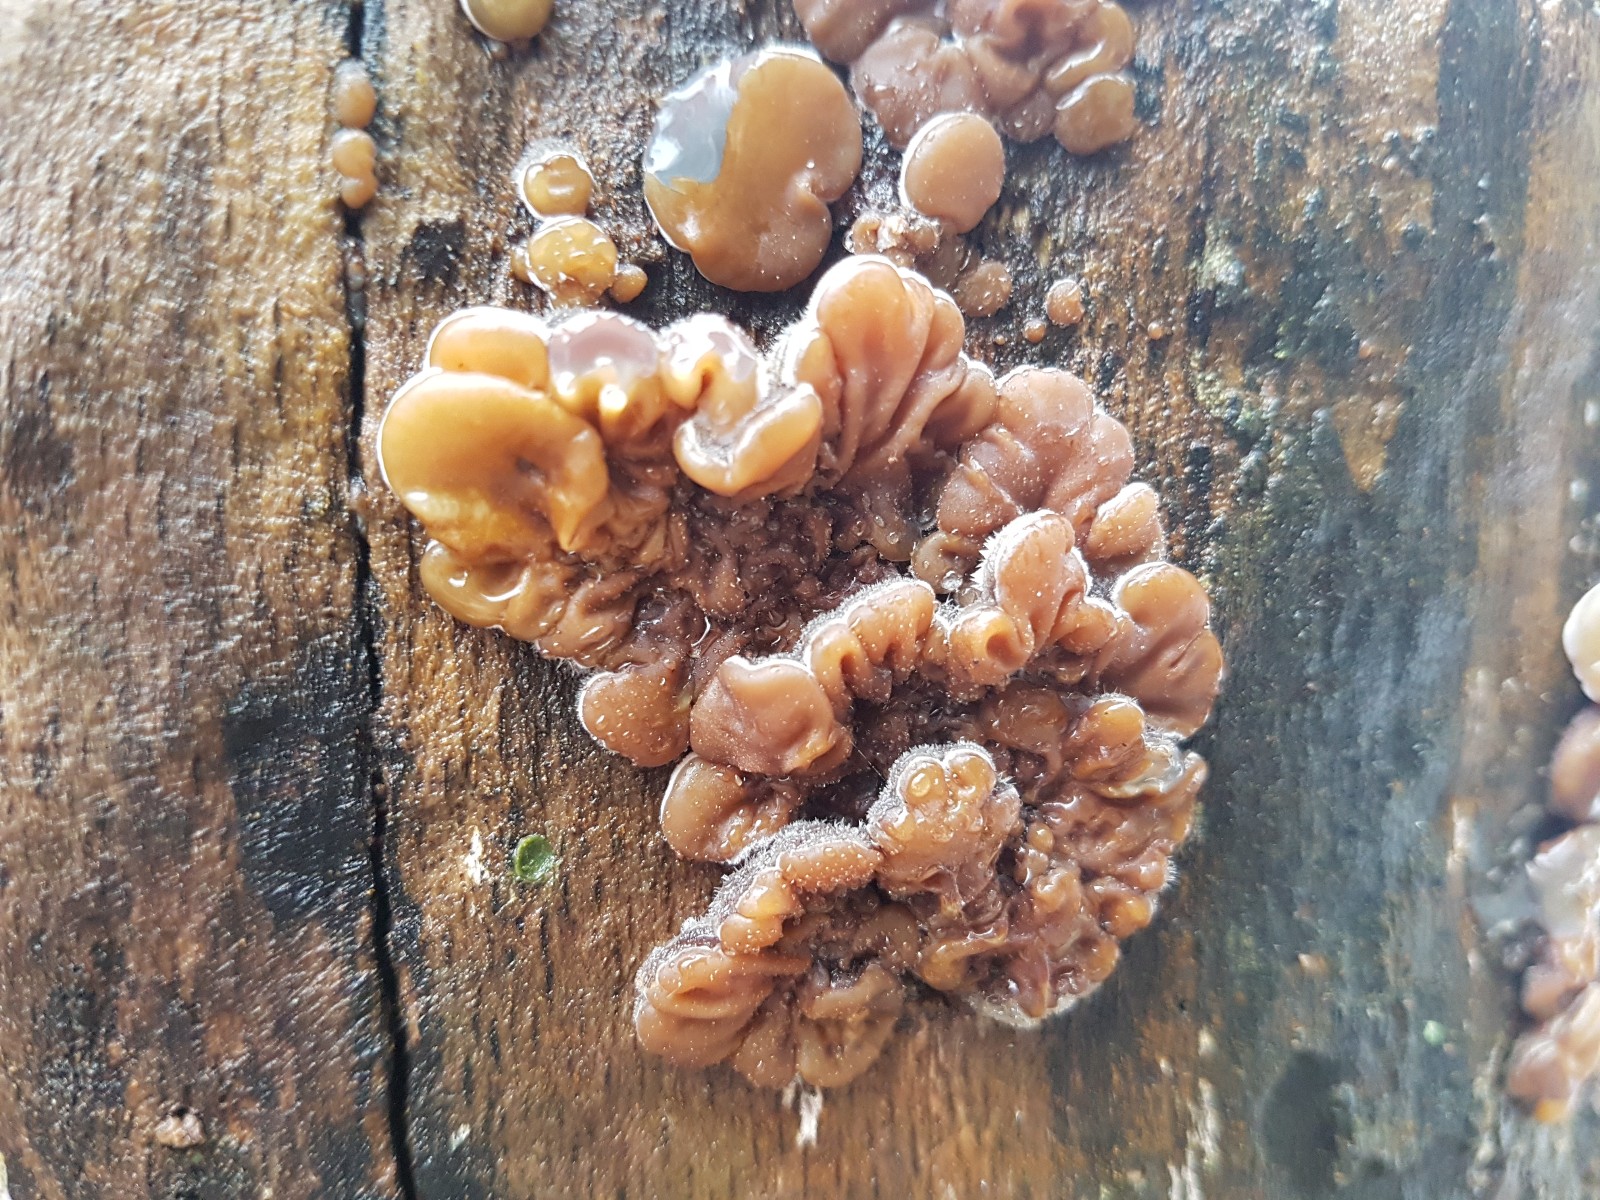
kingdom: Fungi
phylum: Basidiomycota
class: Agaricomycetes
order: Auriculariales
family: Auriculariaceae
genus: Auricularia
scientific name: Auricularia mesenterica
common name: håret judasøre
